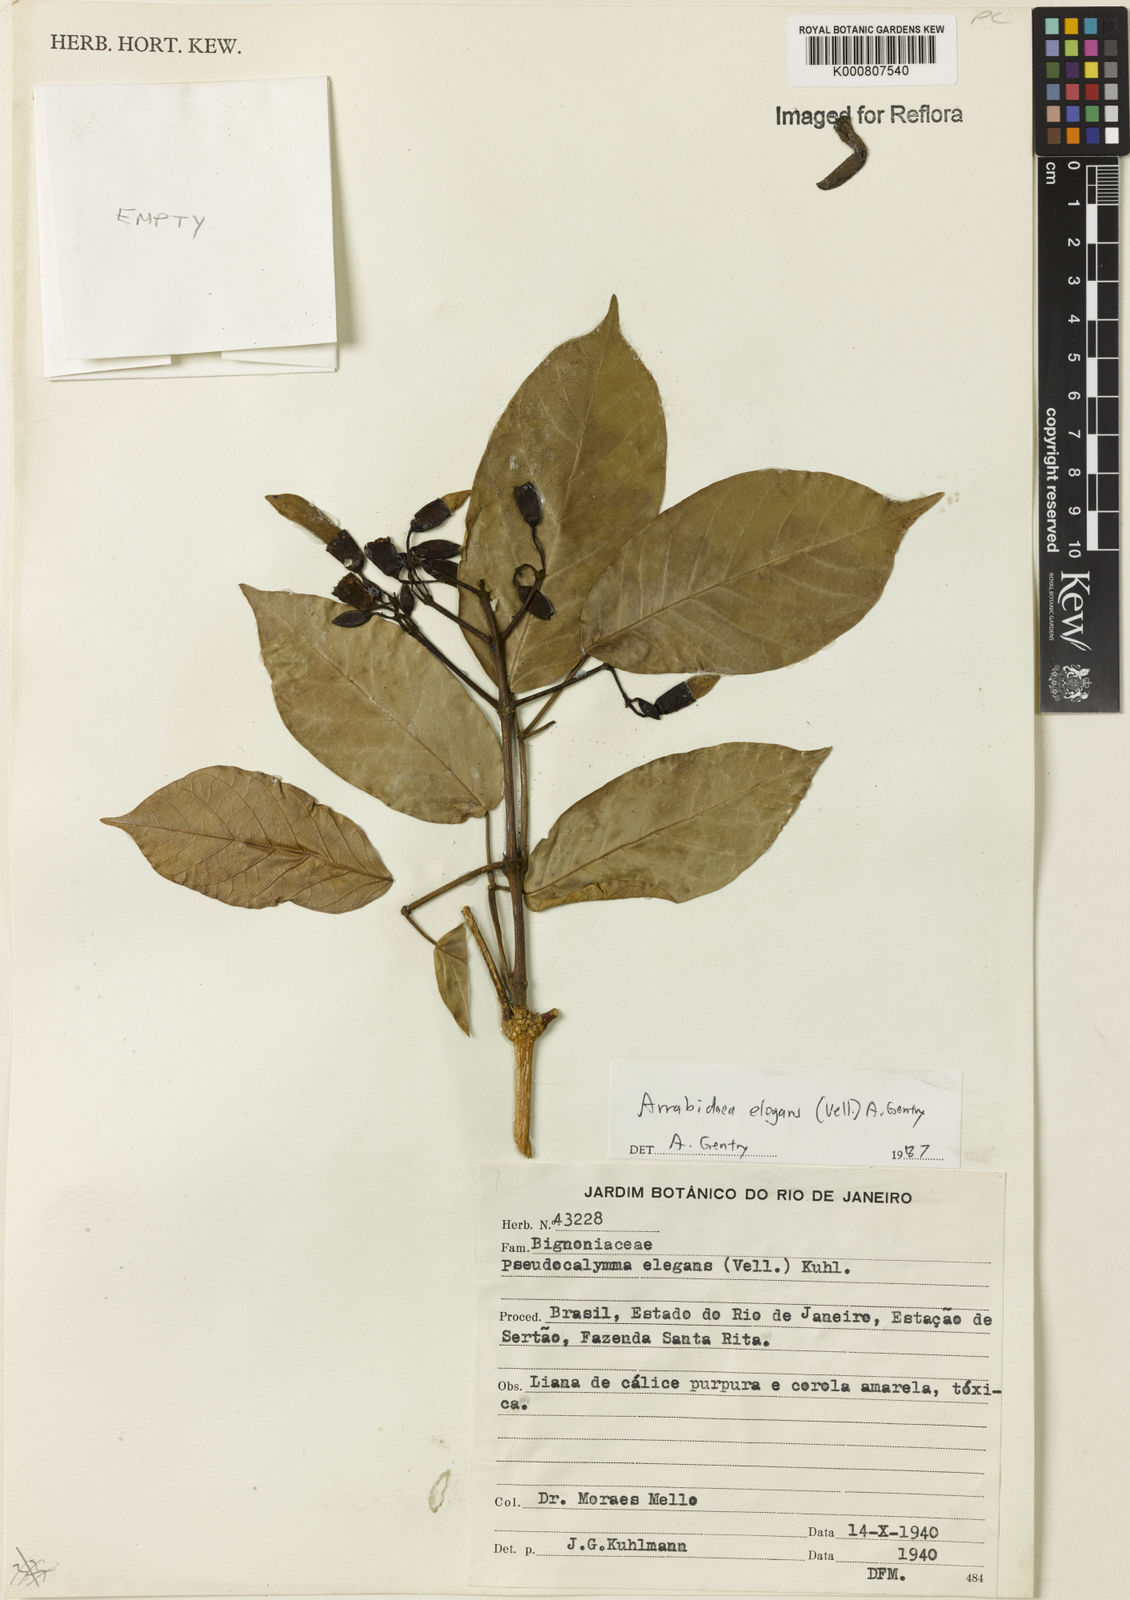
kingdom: Plantae
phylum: Tracheophyta
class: Magnoliopsida
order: Lamiales
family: Bignoniaceae
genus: Fridericia
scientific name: Fridericia elegans
